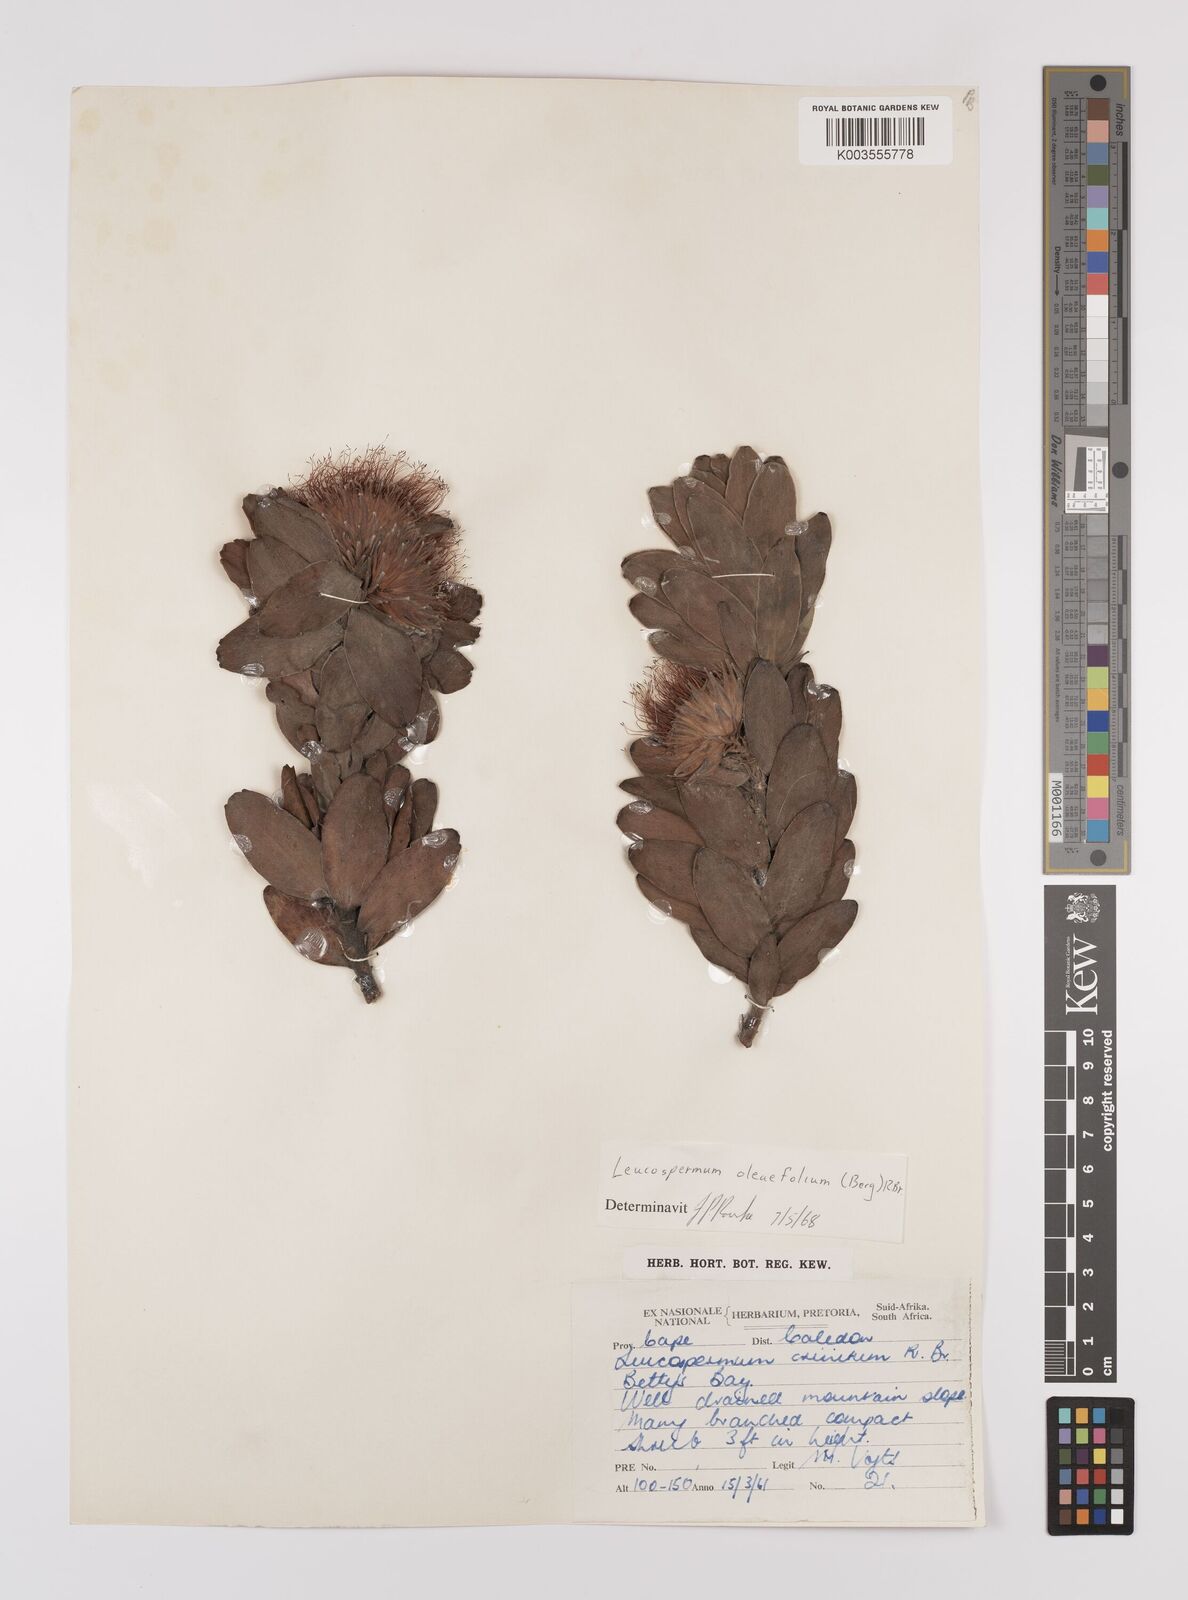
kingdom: Plantae
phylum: Tracheophyta
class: Magnoliopsida
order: Proteales
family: Proteaceae
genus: Leucospermum
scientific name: Leucospermum oleifolium
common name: Matches
